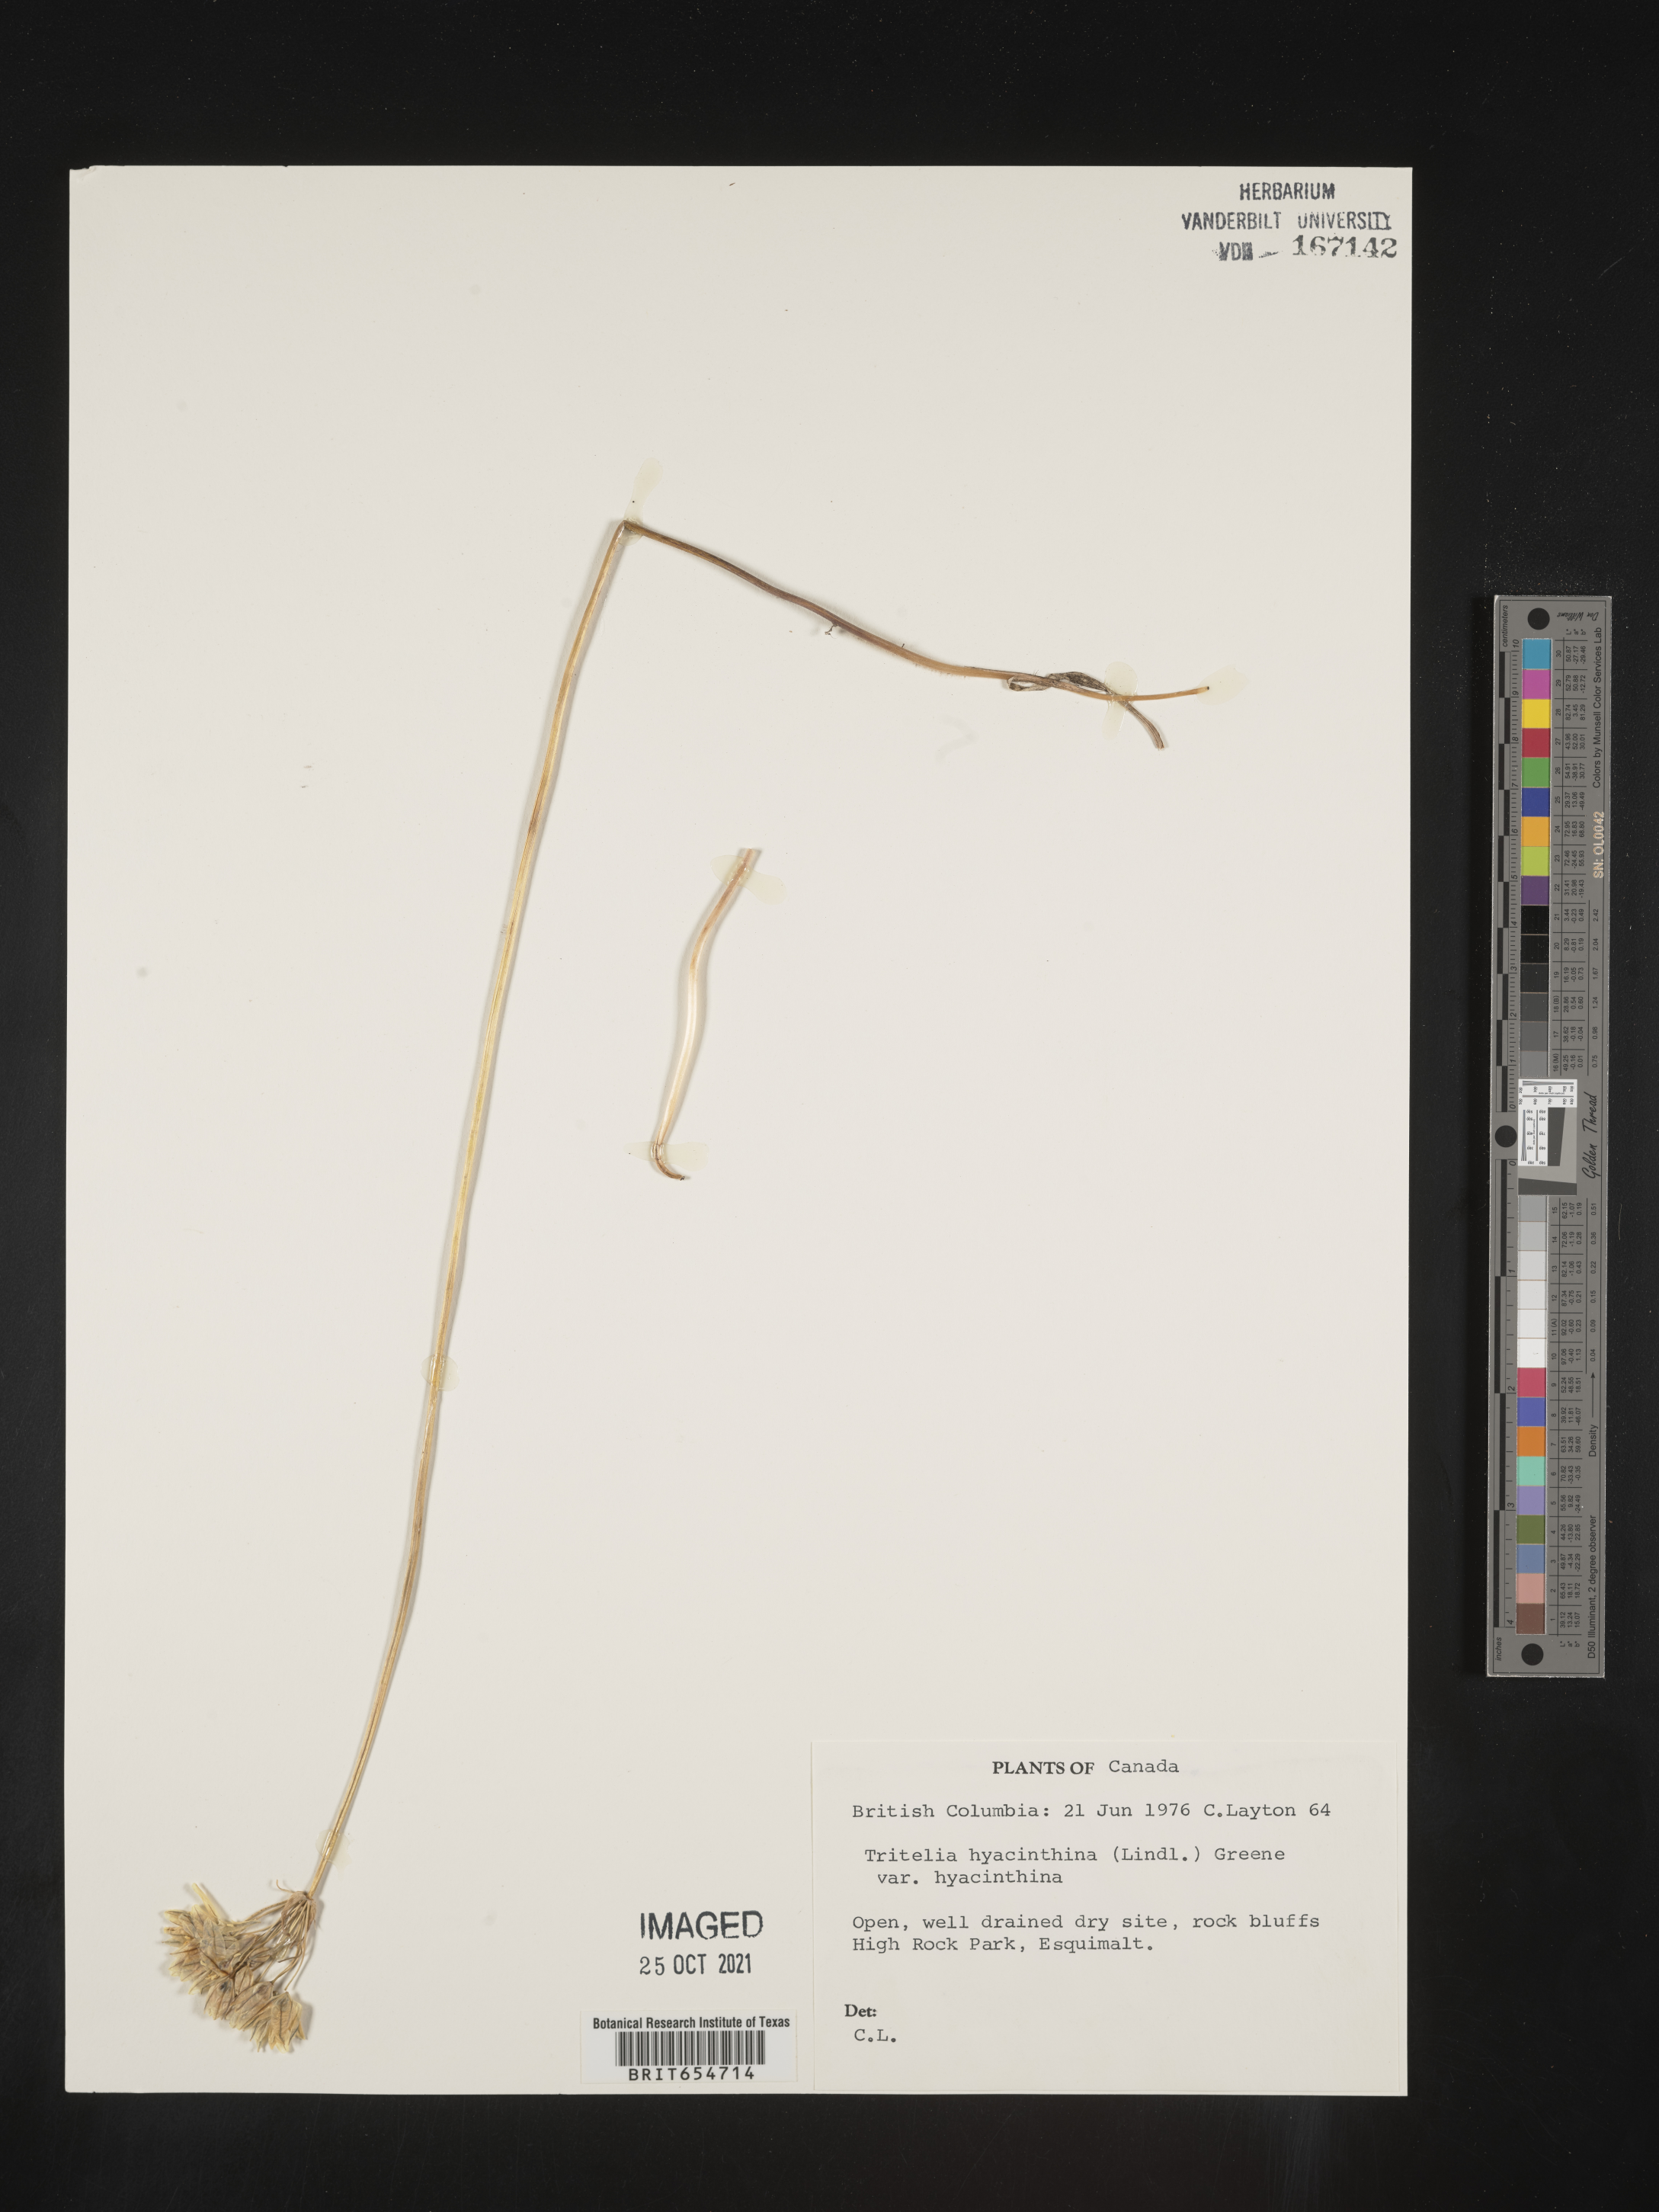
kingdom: Plantae
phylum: Tracheophyta
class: Liliopsida
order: Asparagales
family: Asparagaceae
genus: Triteleia
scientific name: Triteleia hyacinthina
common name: White brodiaea
